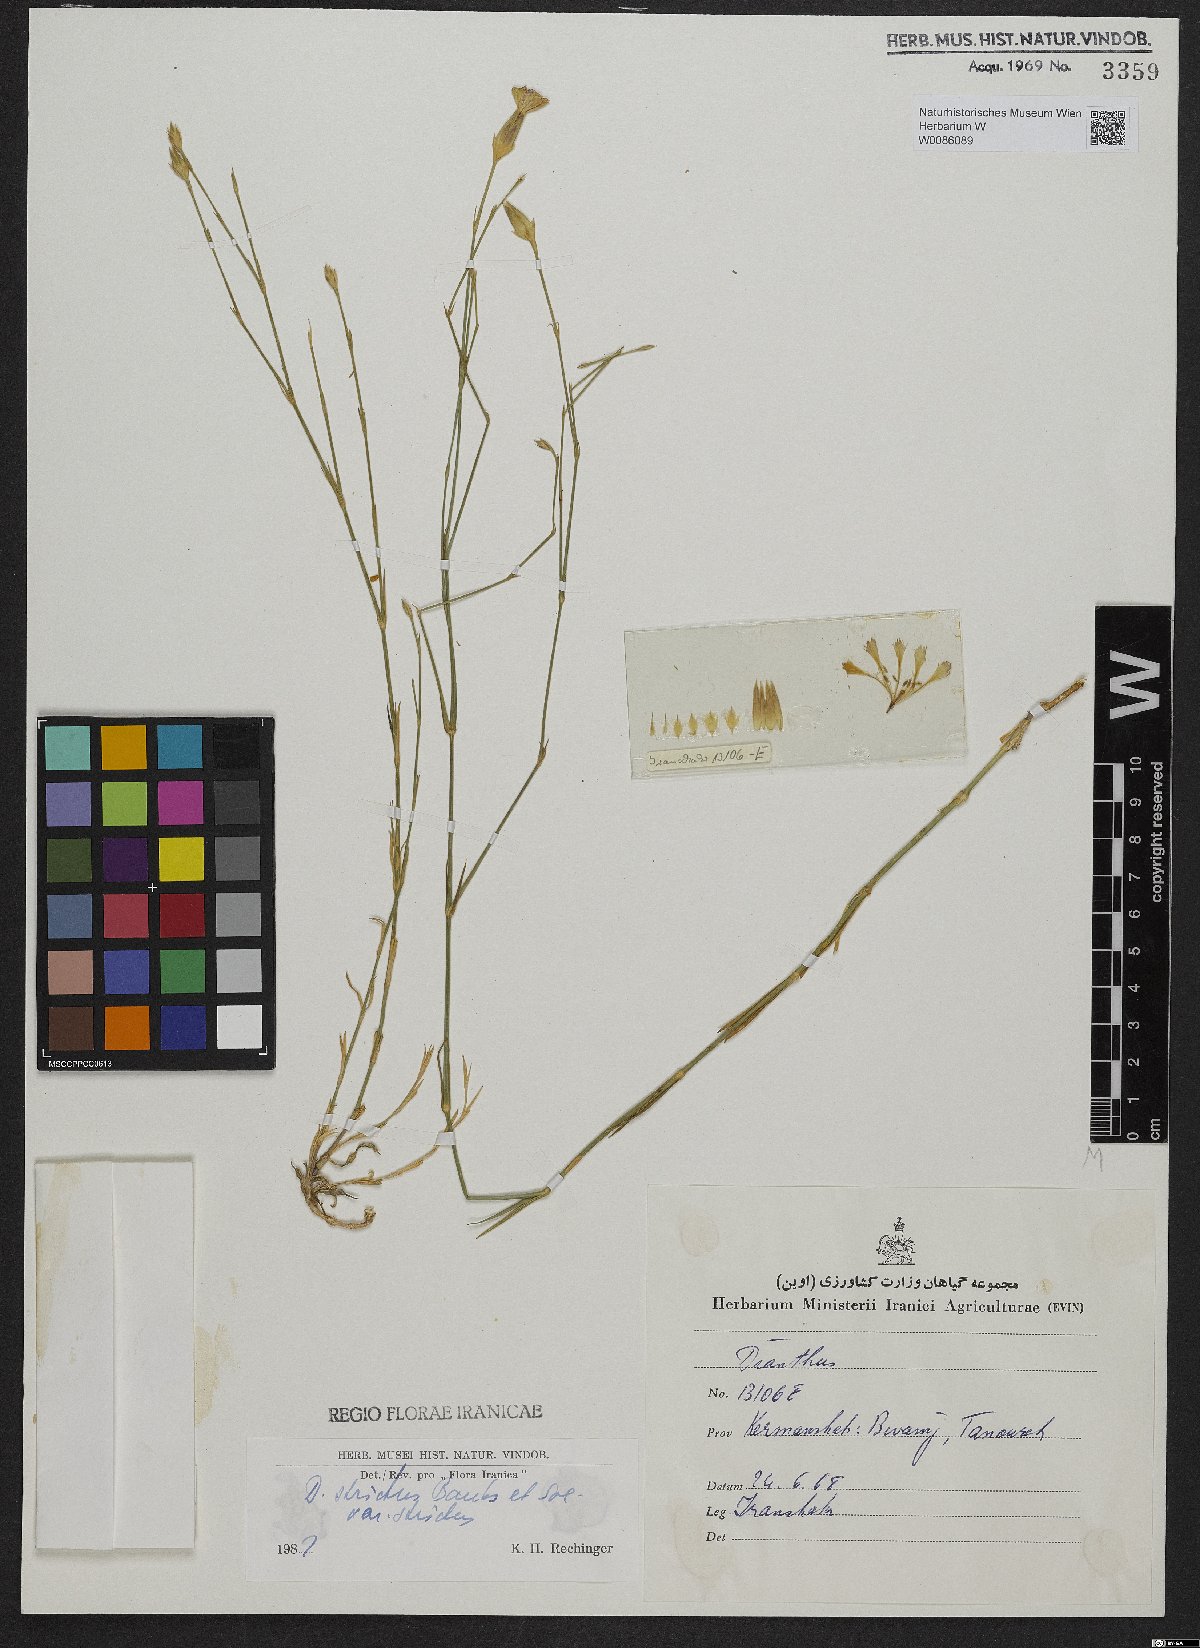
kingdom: Plantae
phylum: Tracheophyta
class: Magnoliopsida
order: Caryophyllales
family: Caryophyllaceae
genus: Dianthus
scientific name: Dianthus strictus
